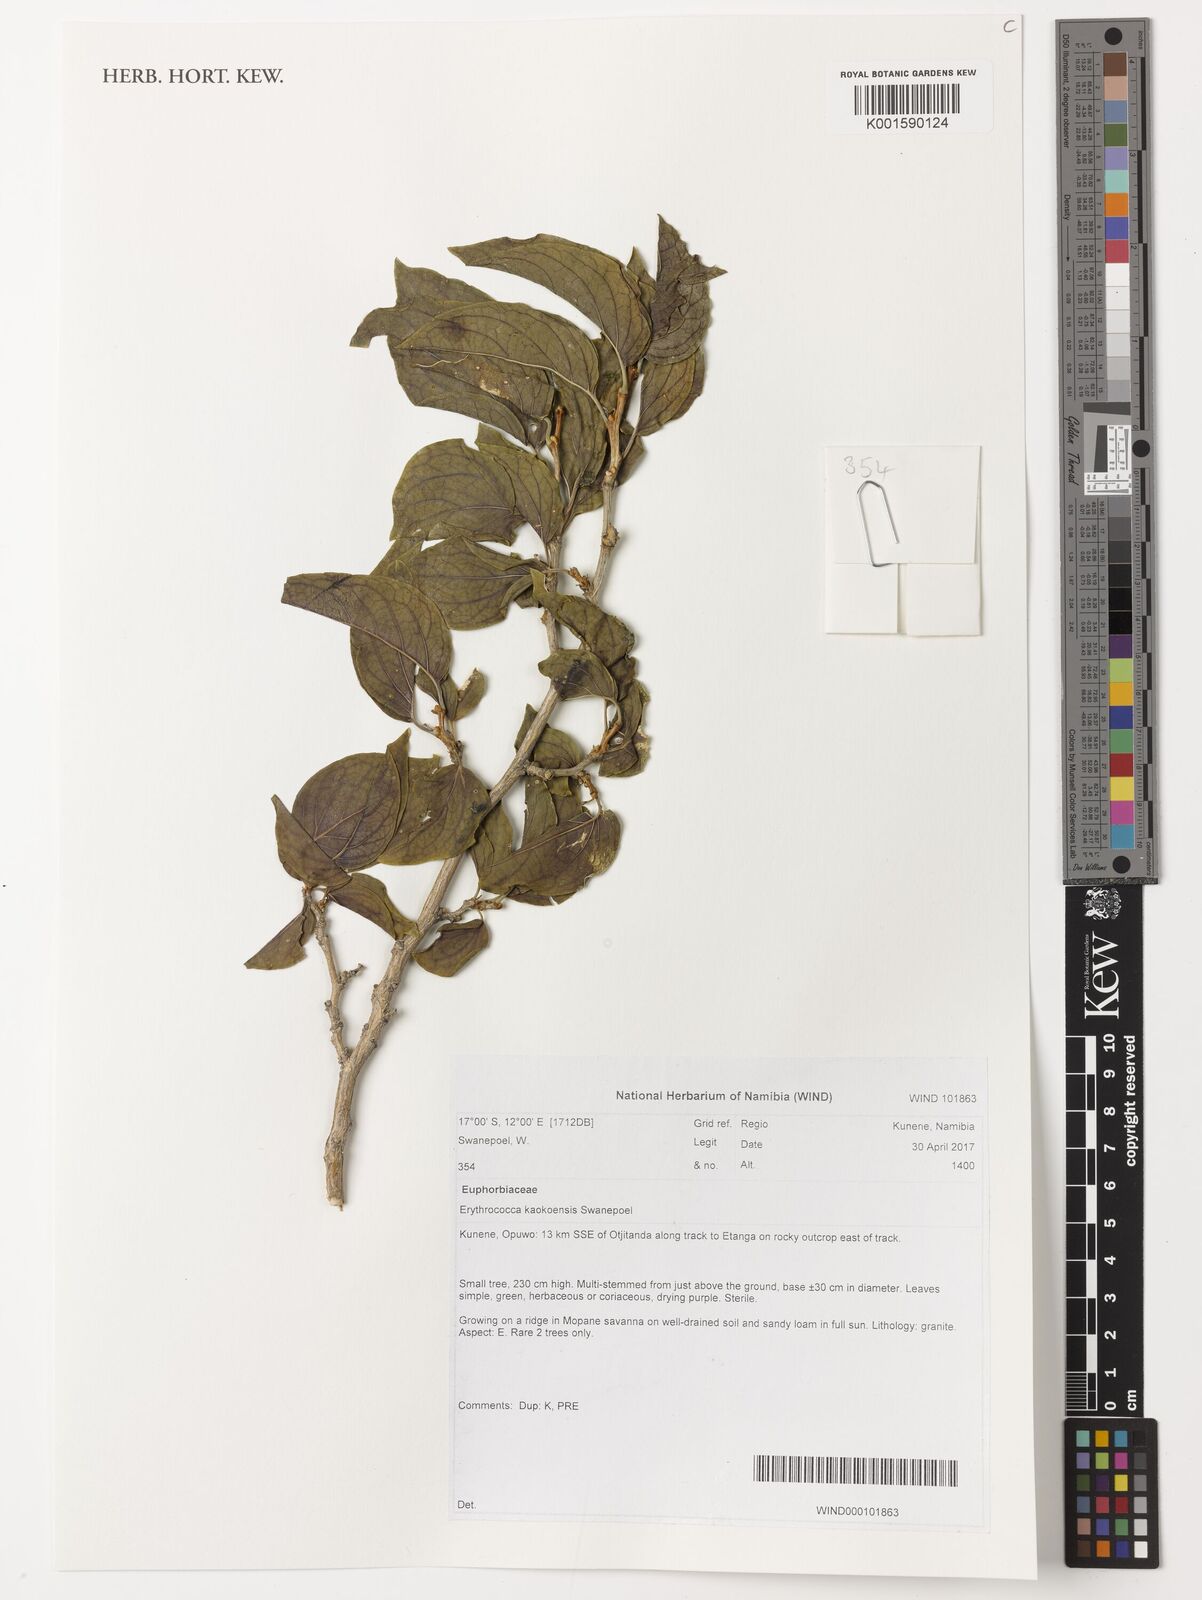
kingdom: Plantae
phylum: Tracheophyta
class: Magnoliopsida
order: Malpighiales
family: Euphorbiaceae
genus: Erythrococca
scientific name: Erythrococca kaokoensis
